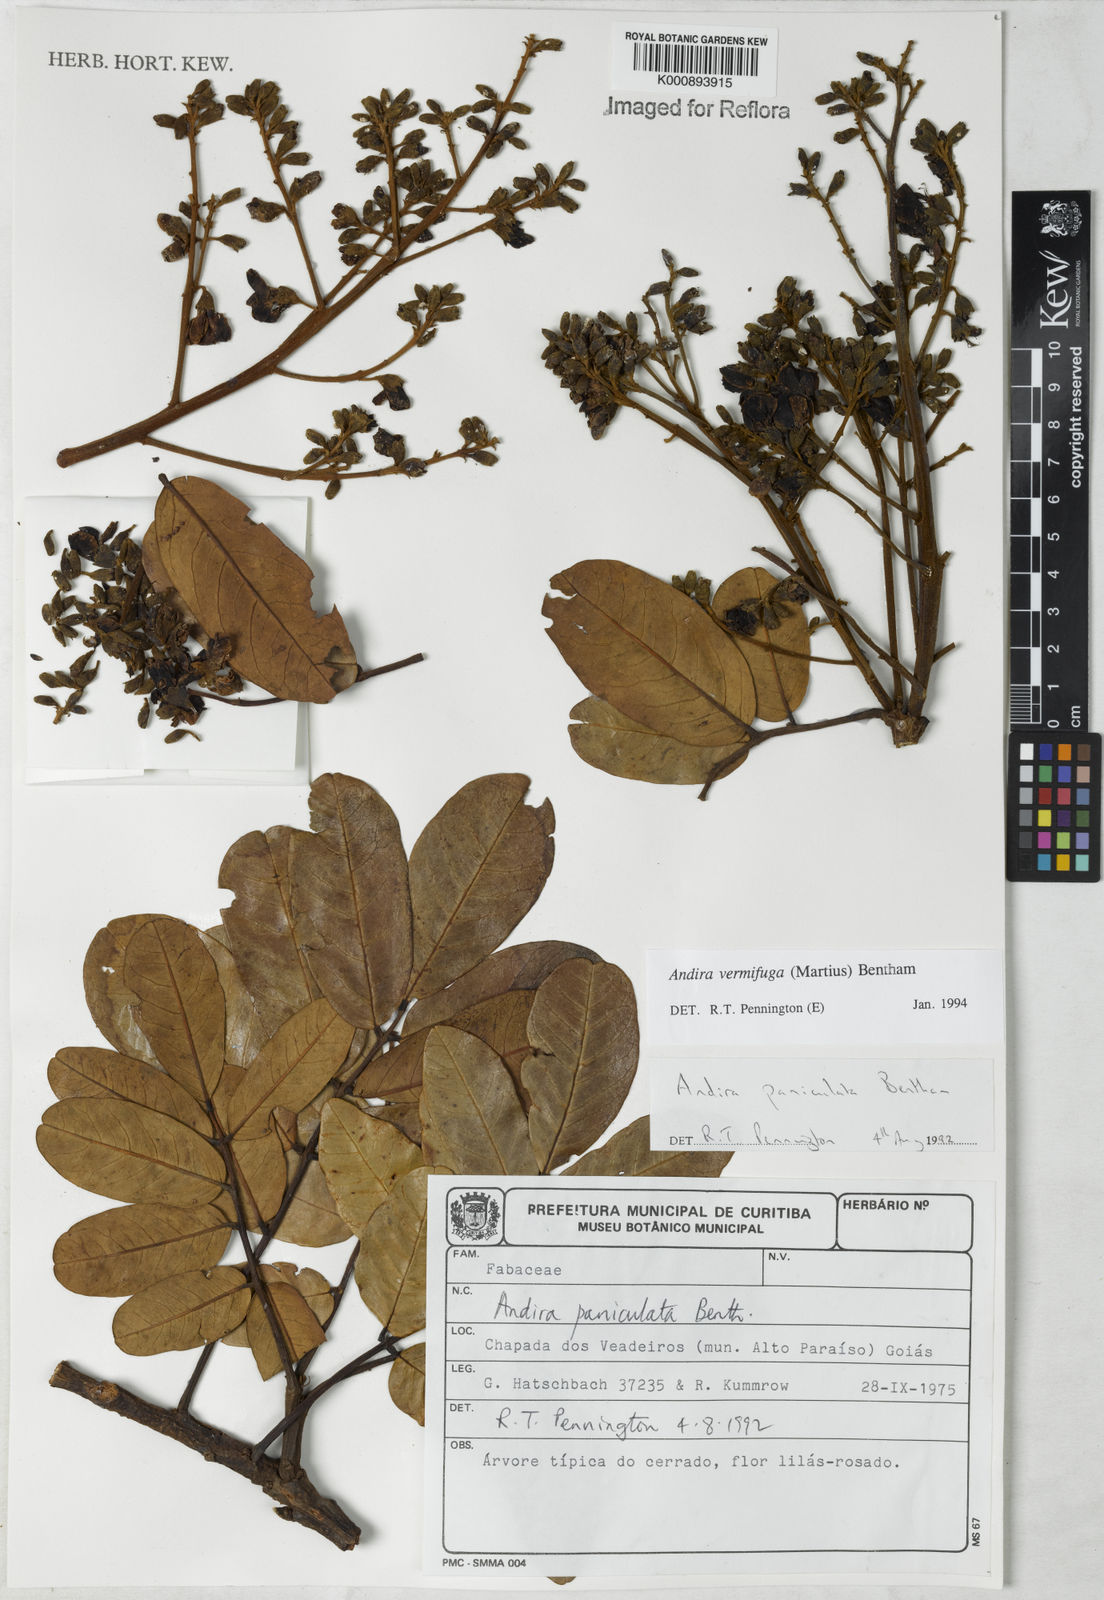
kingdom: Plantae
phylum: Tracheophyta
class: Magnoliopsida
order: Fabales
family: Fabaceae
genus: Andira
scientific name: Andira vermifuga
